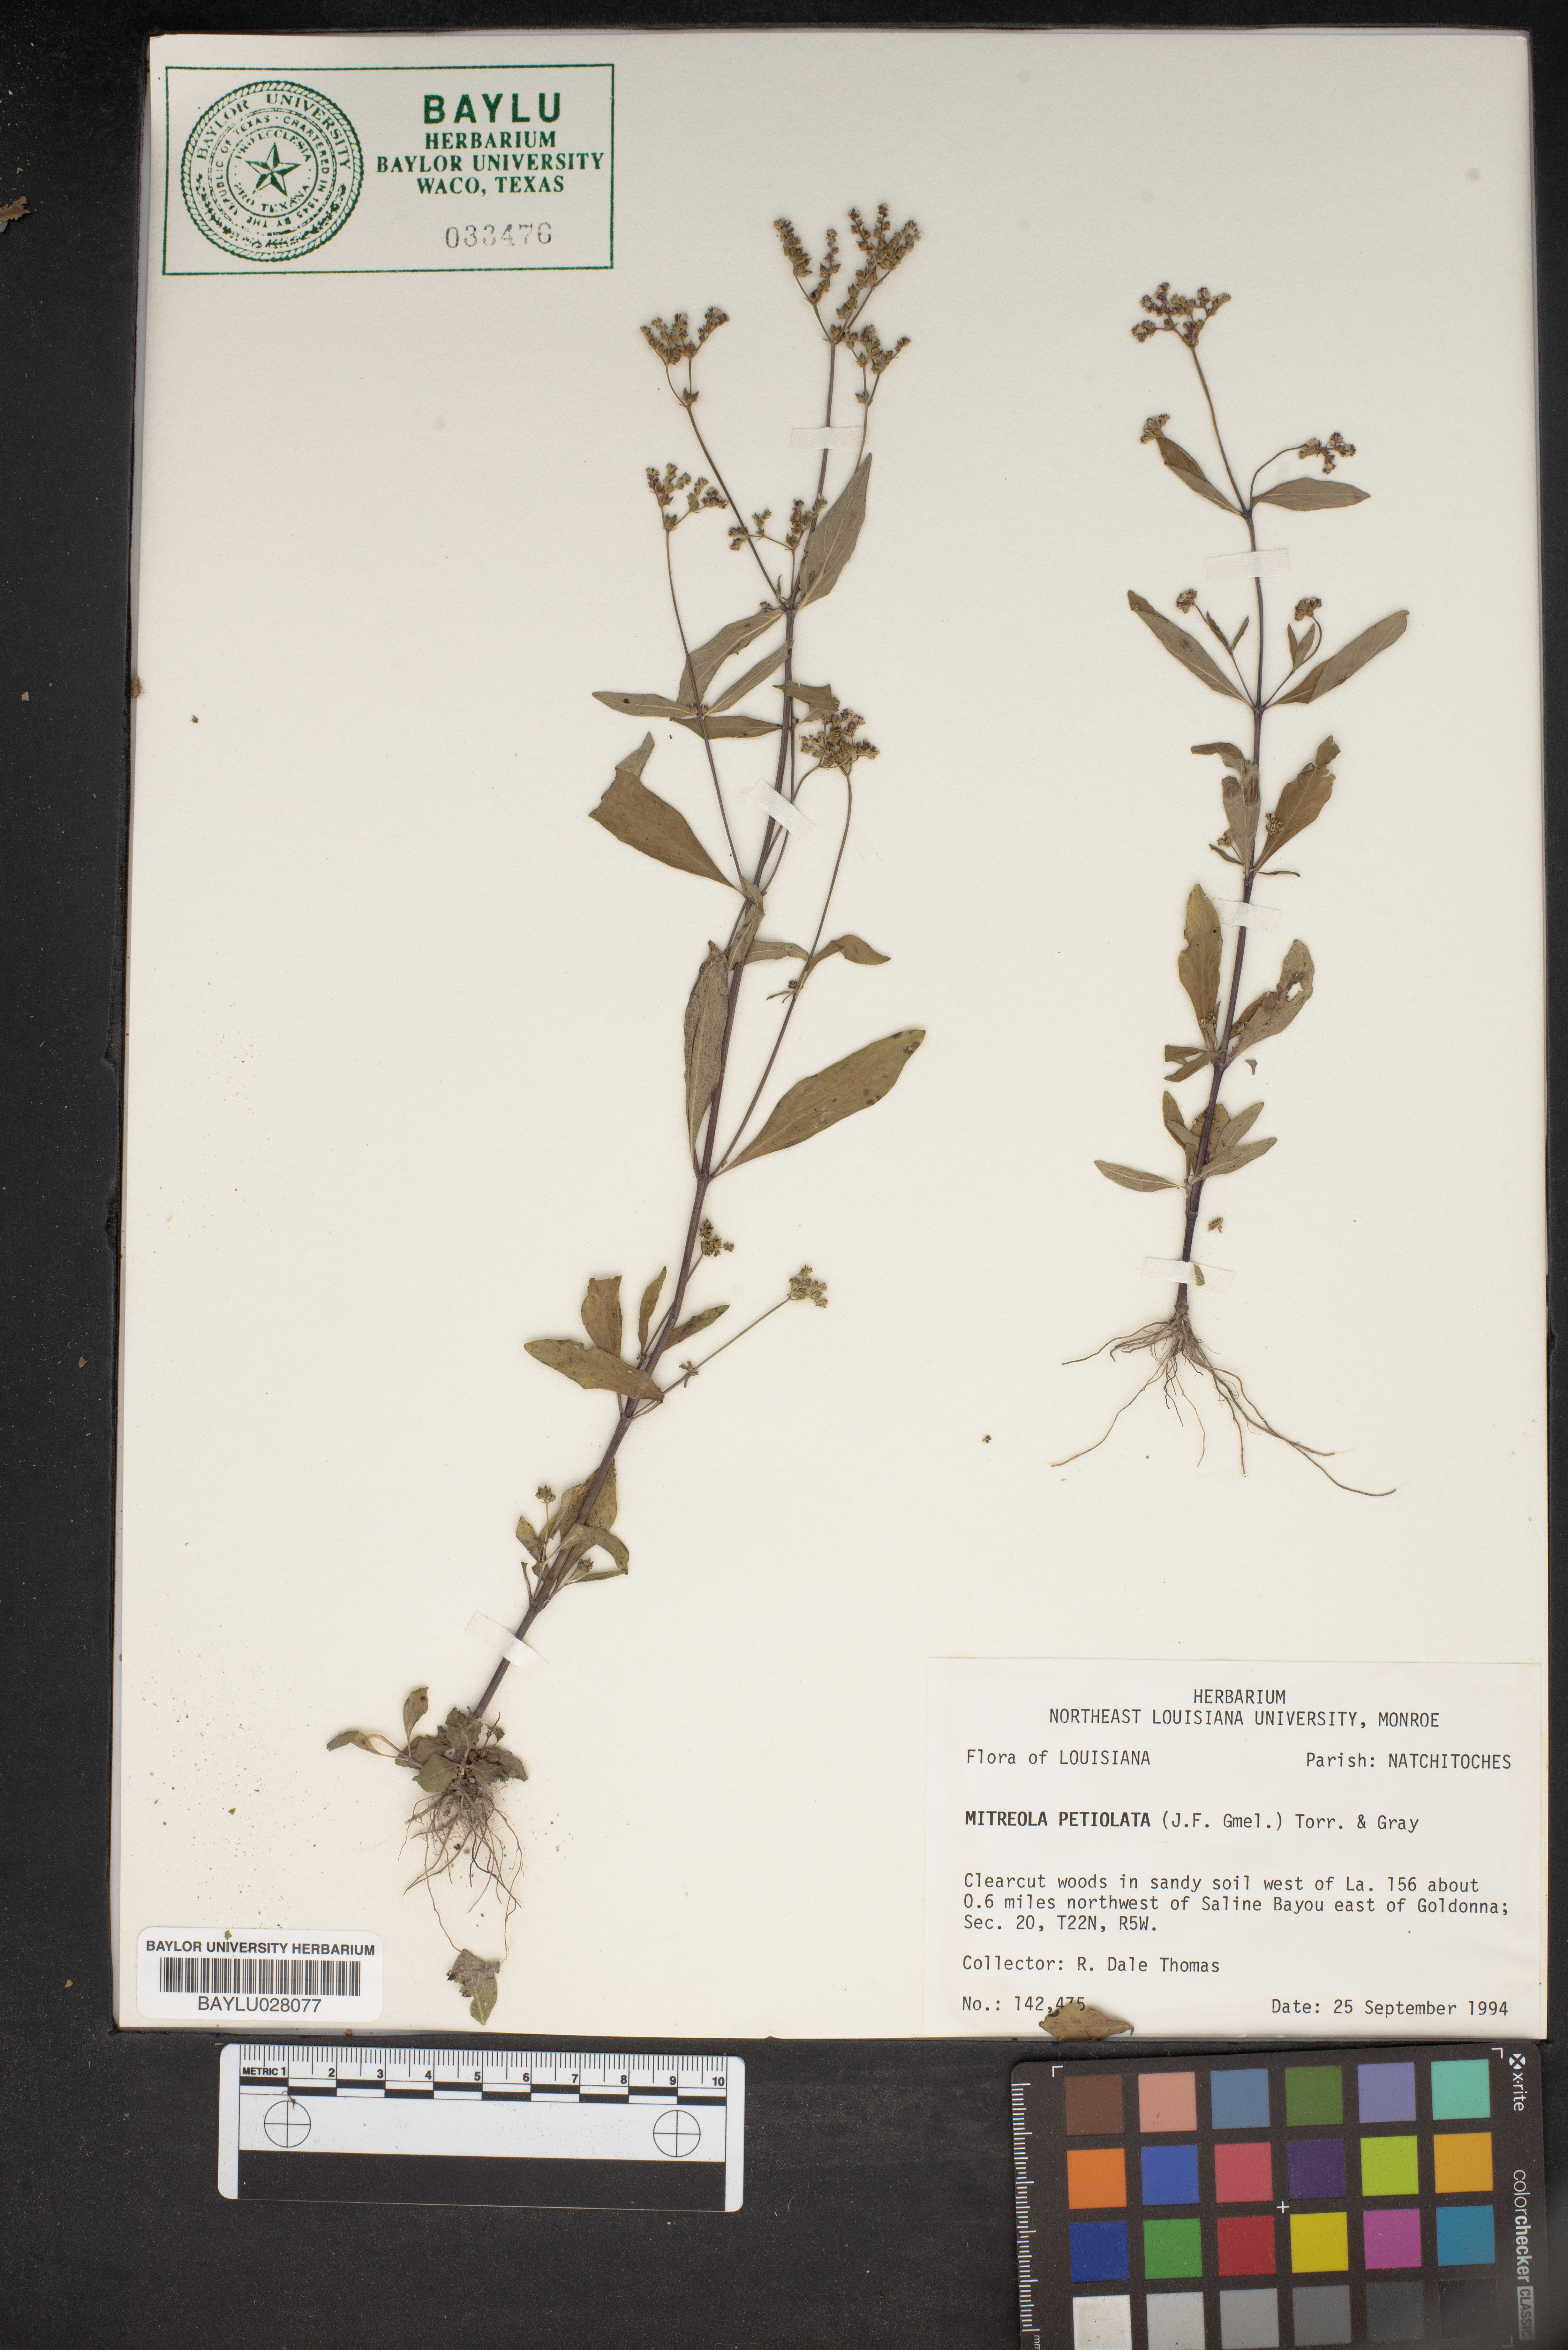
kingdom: Plantae
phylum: Tracheophyta
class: Magnoliopsida
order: Gentianales
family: Loganiaceae
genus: Mitreola
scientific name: Mitreola petiolata
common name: Lax hornpod
